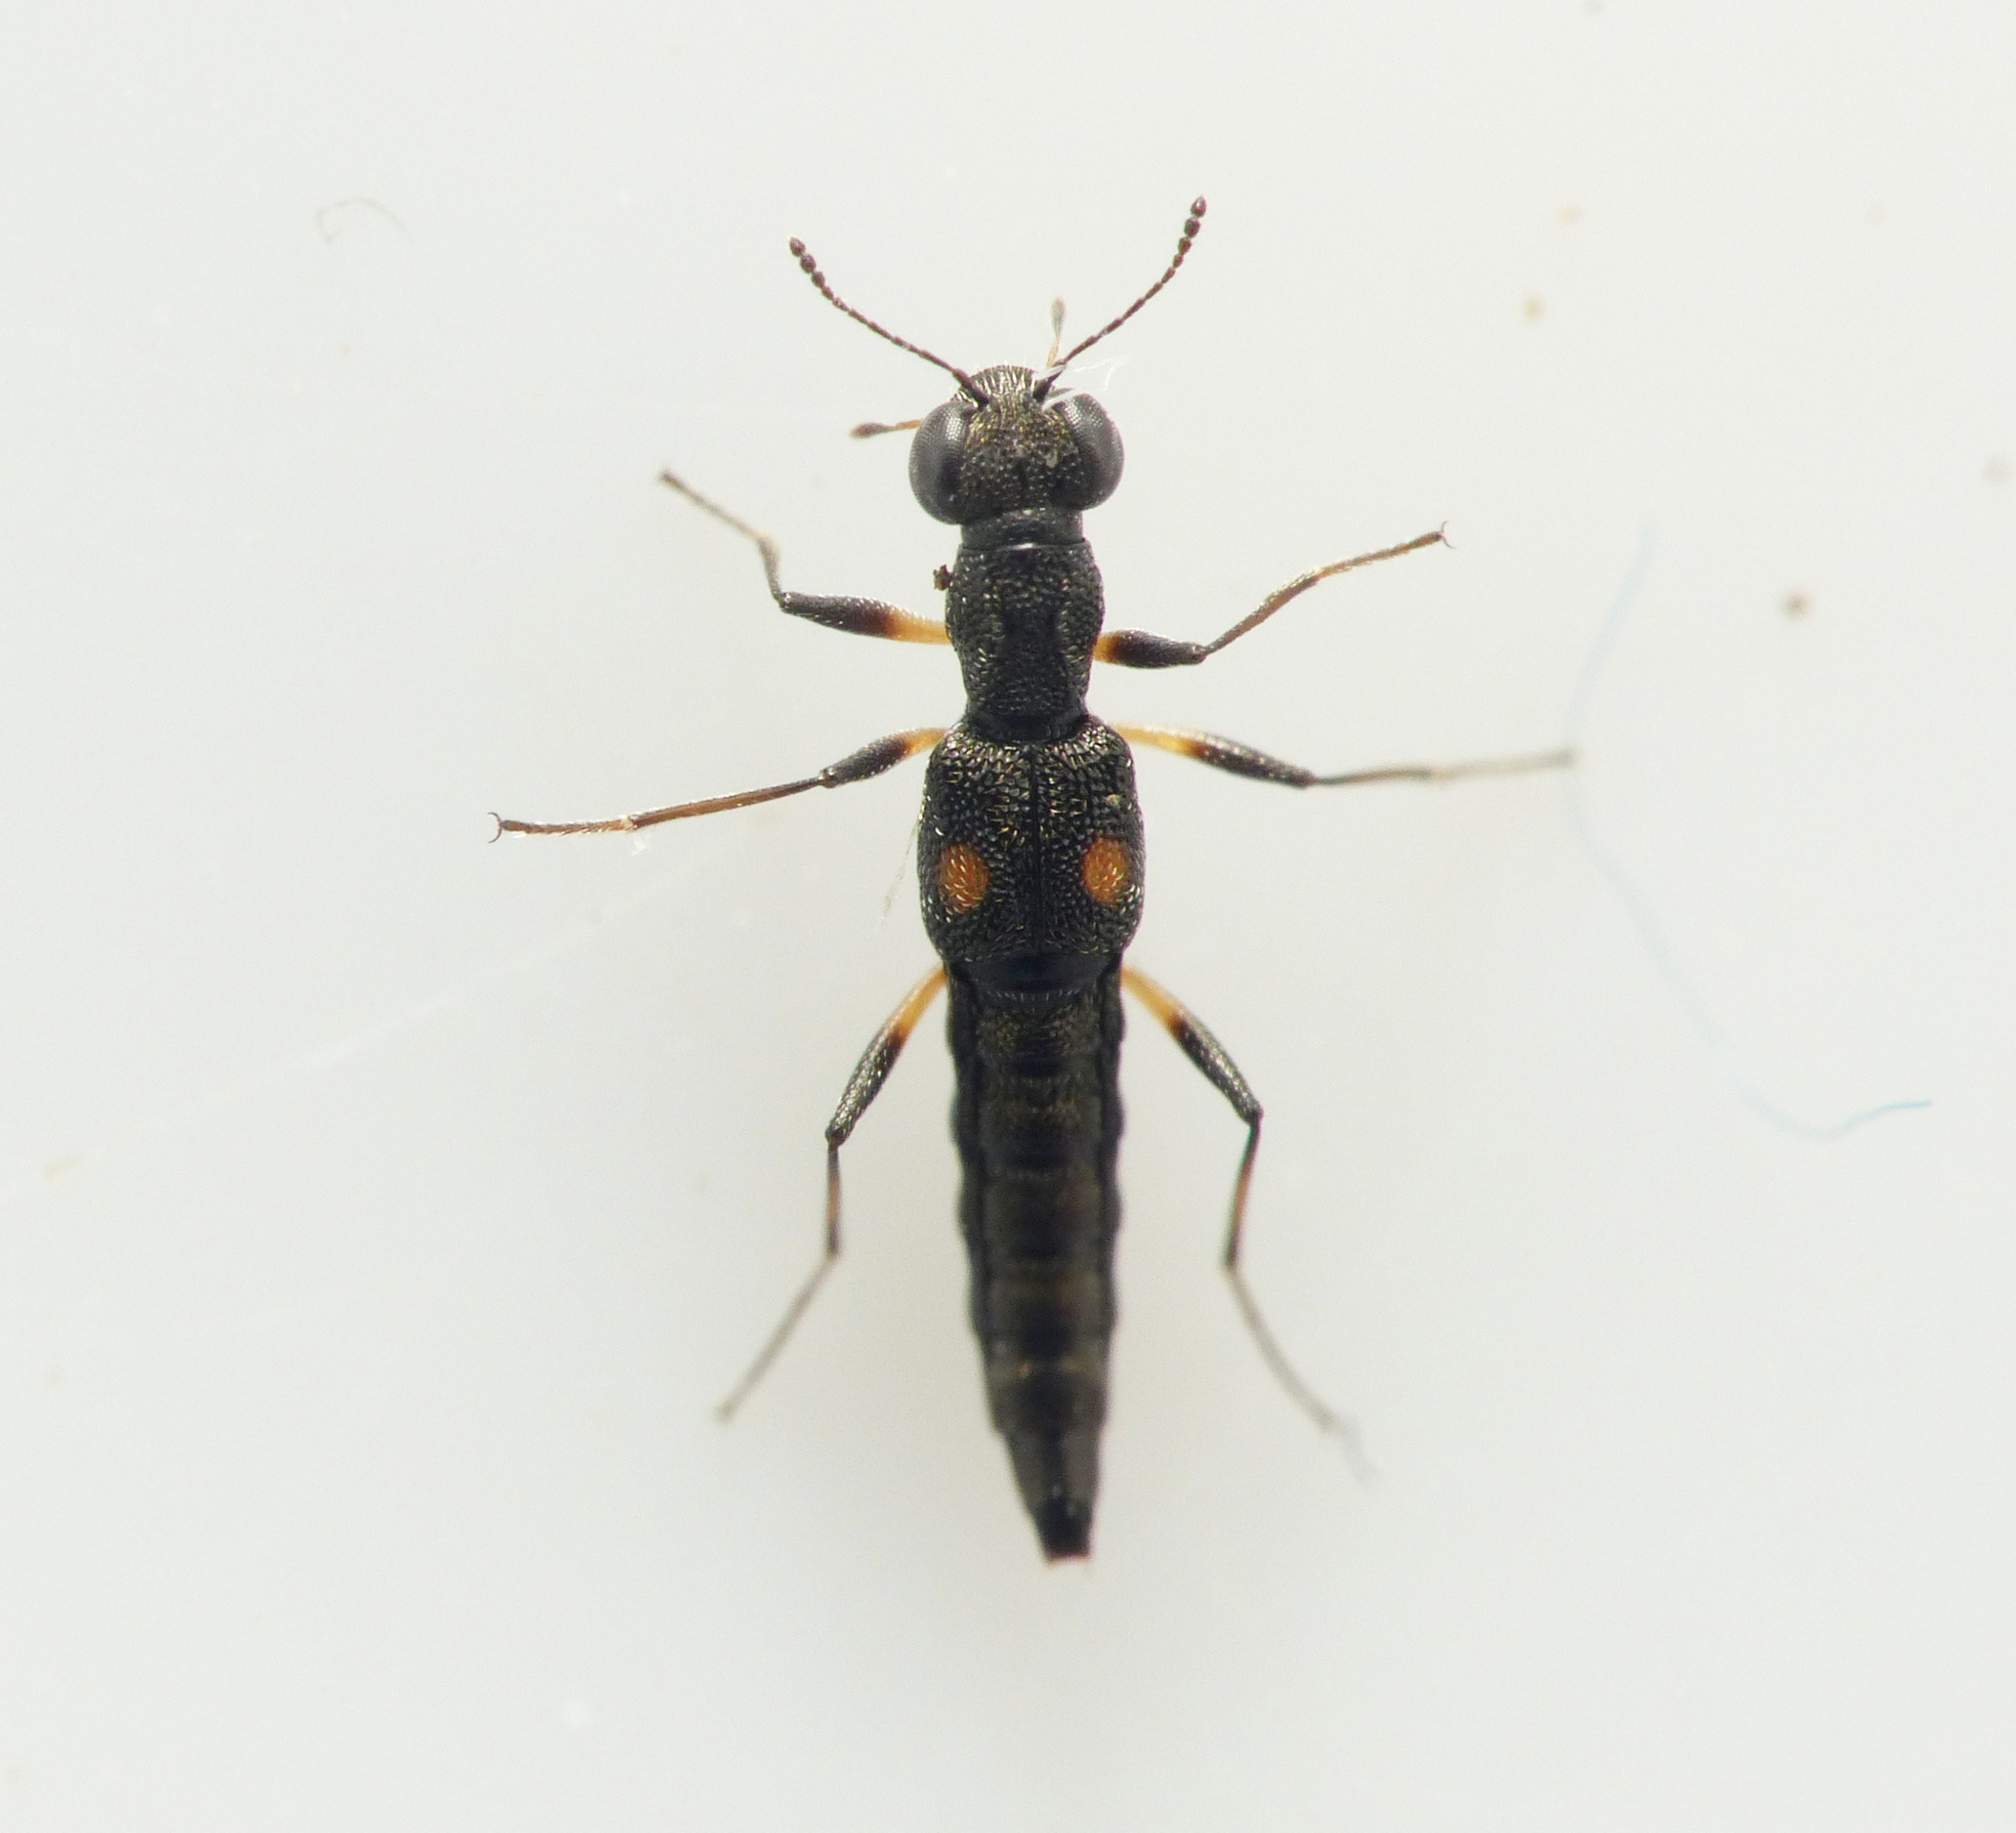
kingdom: Animalia
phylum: Arthropoda
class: Insecta
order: Coleoptera
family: Staphylinidae
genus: Stenus
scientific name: Stenus guttula
